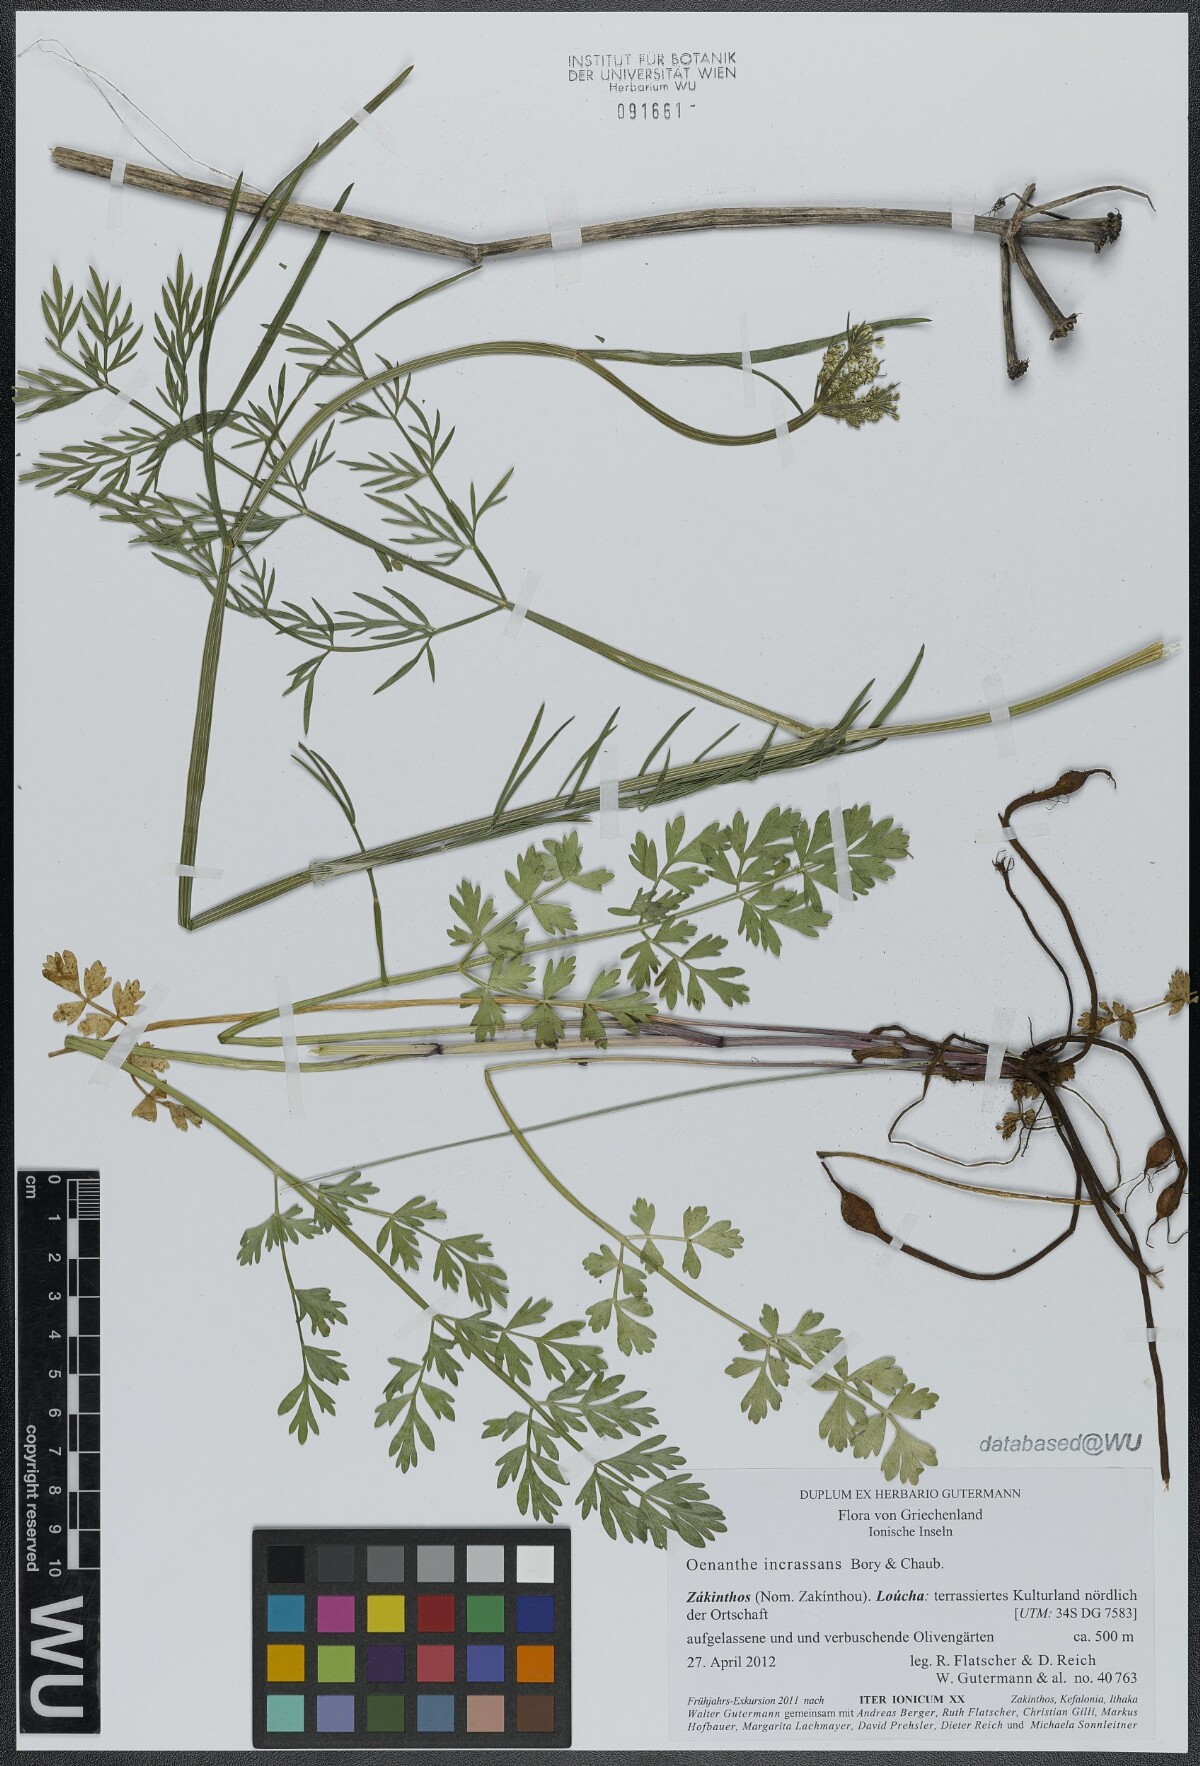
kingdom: Plantae
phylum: Tracheophyta
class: Magnoliopsida
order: Apiales
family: Apiaceae
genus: Oenanthe
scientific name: Oenanthe pimpinelloides
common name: Corky-fruited water-dropwort
